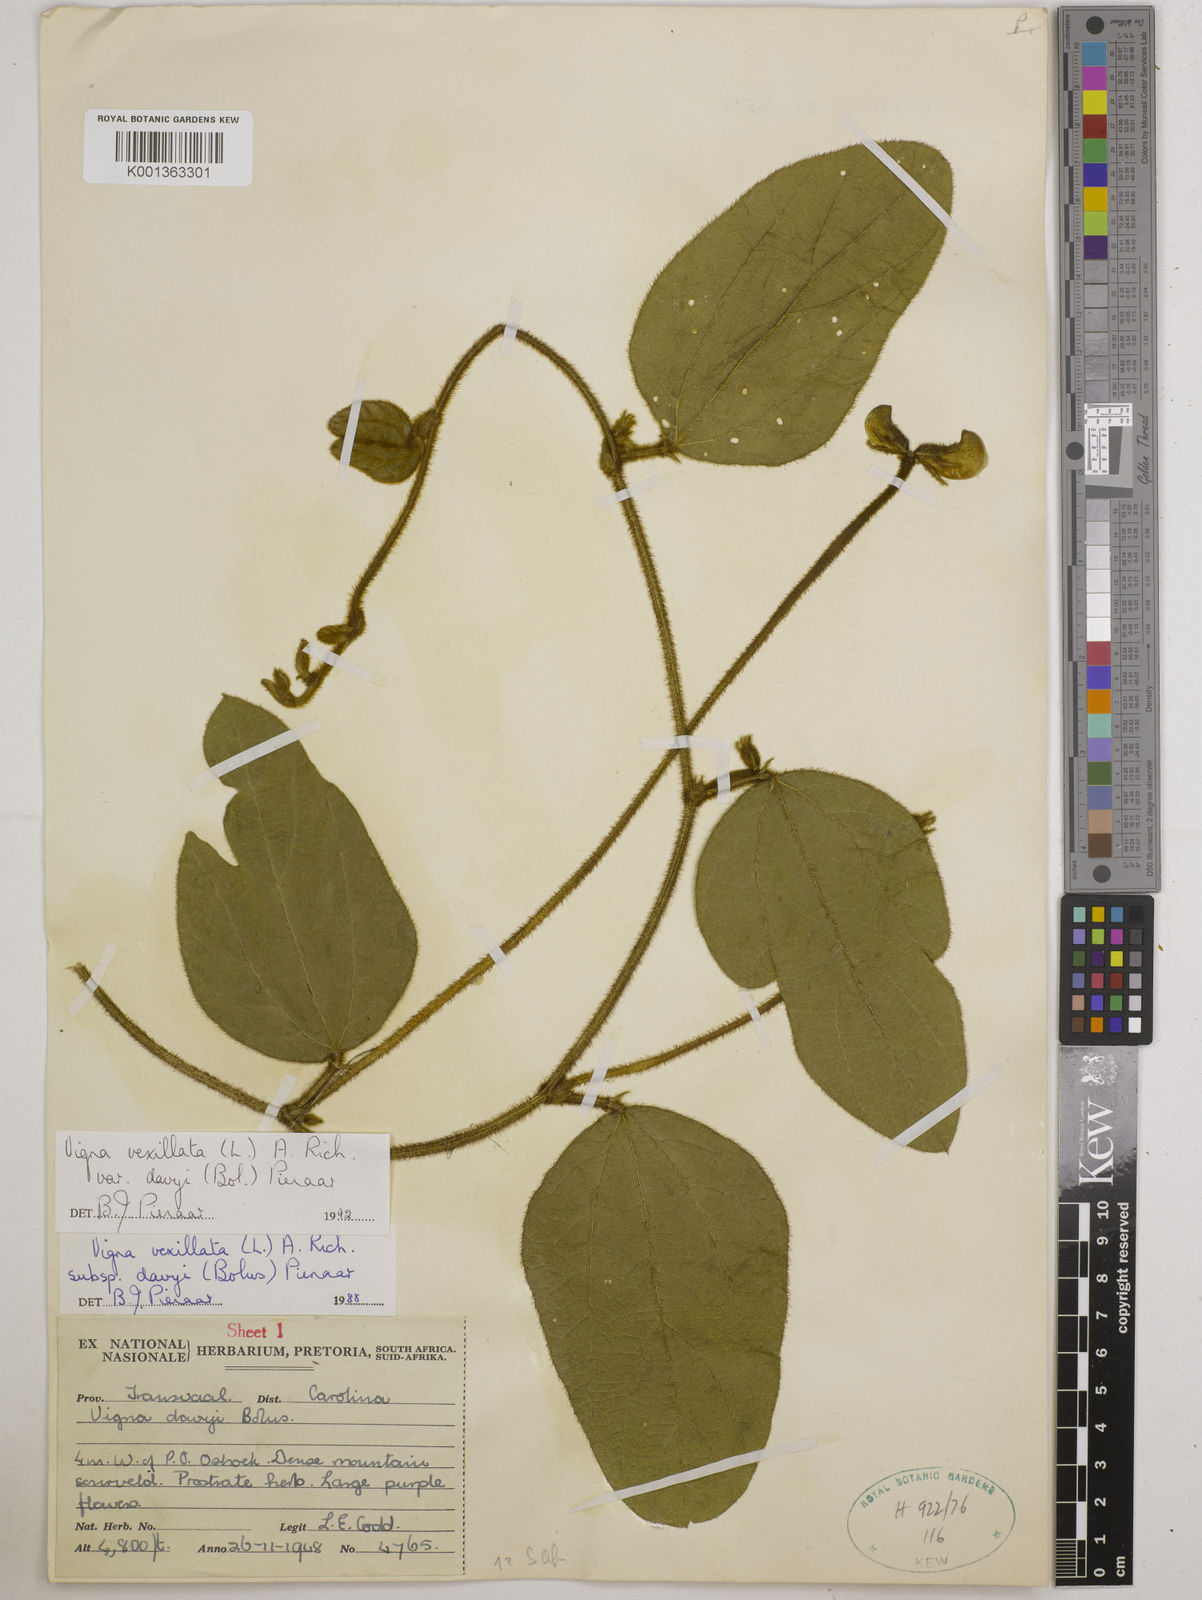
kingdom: Plantae
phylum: Tracheophyta
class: Magnoliopsida
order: Fabales
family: Fabaceae
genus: Vigna
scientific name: Vigna vexillata
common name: Zombi pea
